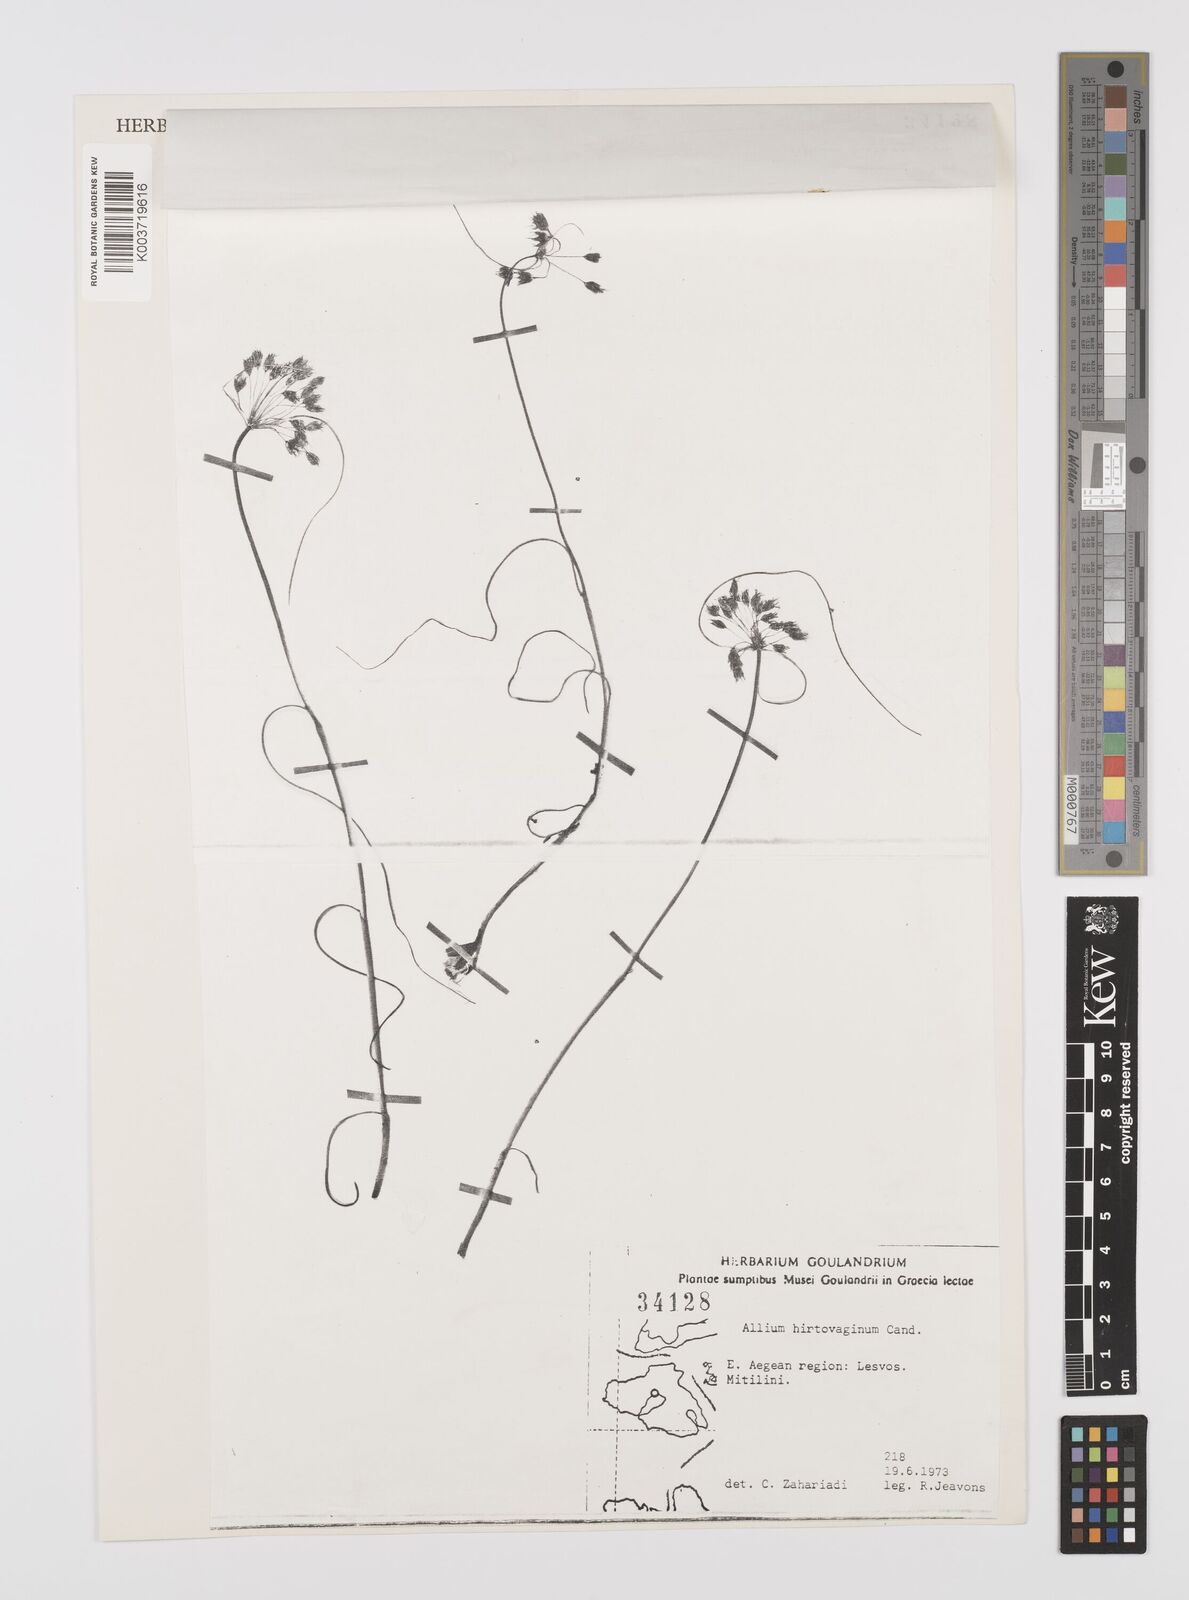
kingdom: Plantae
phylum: Tracheophyta
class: Liliopsida
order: Asparagales
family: Amaryllidaceae
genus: Allium
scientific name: Allium hirtovaginum
